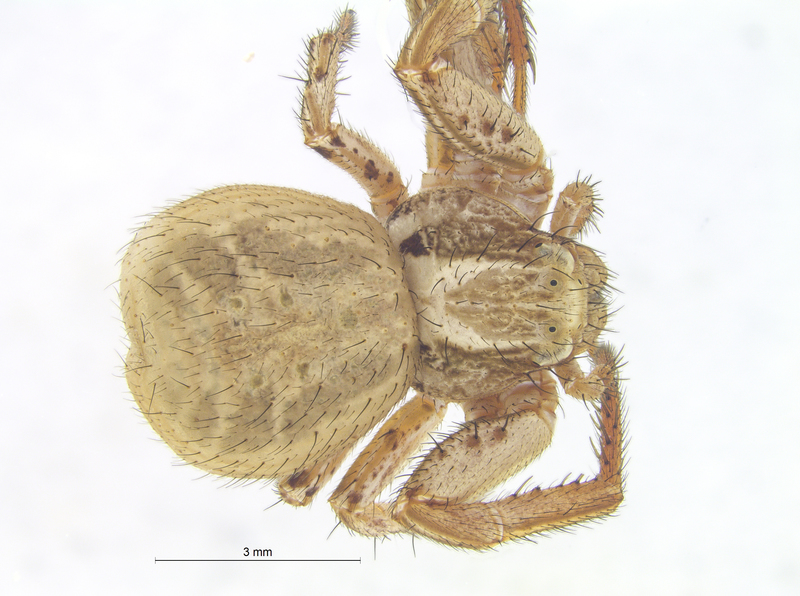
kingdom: Animalia
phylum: Arthropoda
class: Arachnida
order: Araneae
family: Thomisidae
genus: Xysticus
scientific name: Xysticus kochi
